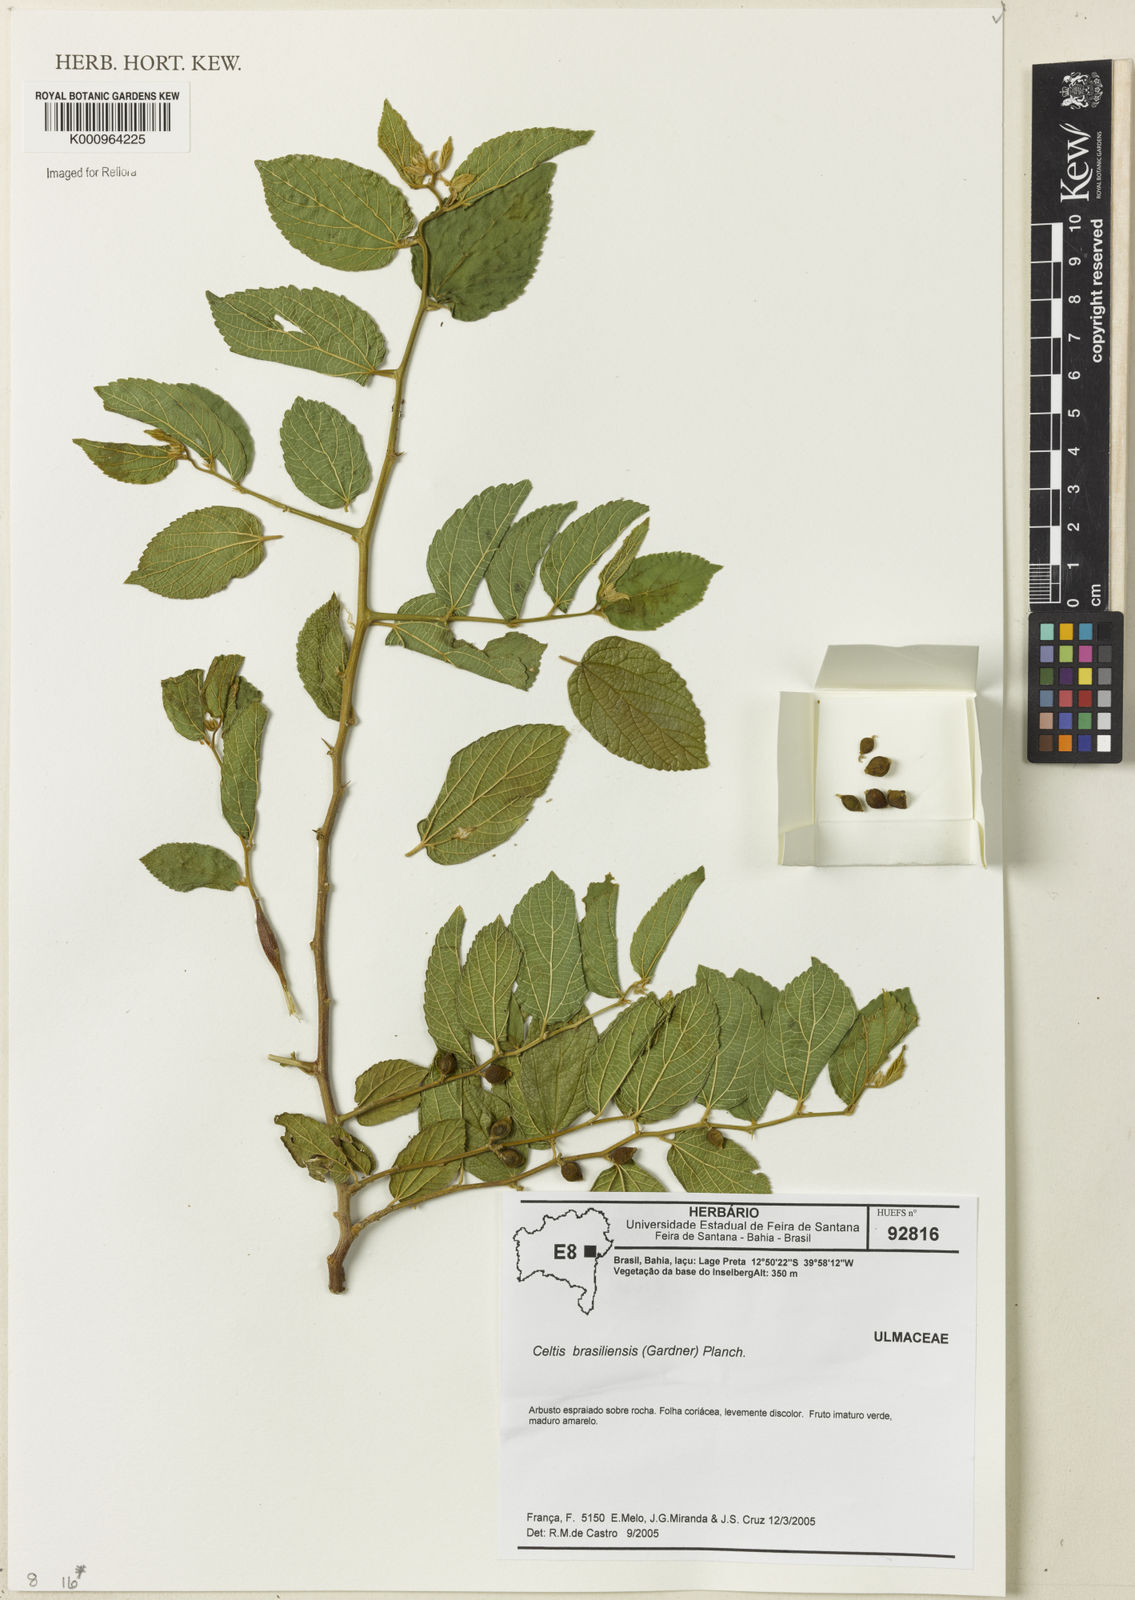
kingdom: Plantae
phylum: Tracheophyta
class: Magnoliopsida
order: Rosales
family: Cannabaceae
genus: Celtis
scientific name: Celtis brasiliensis
